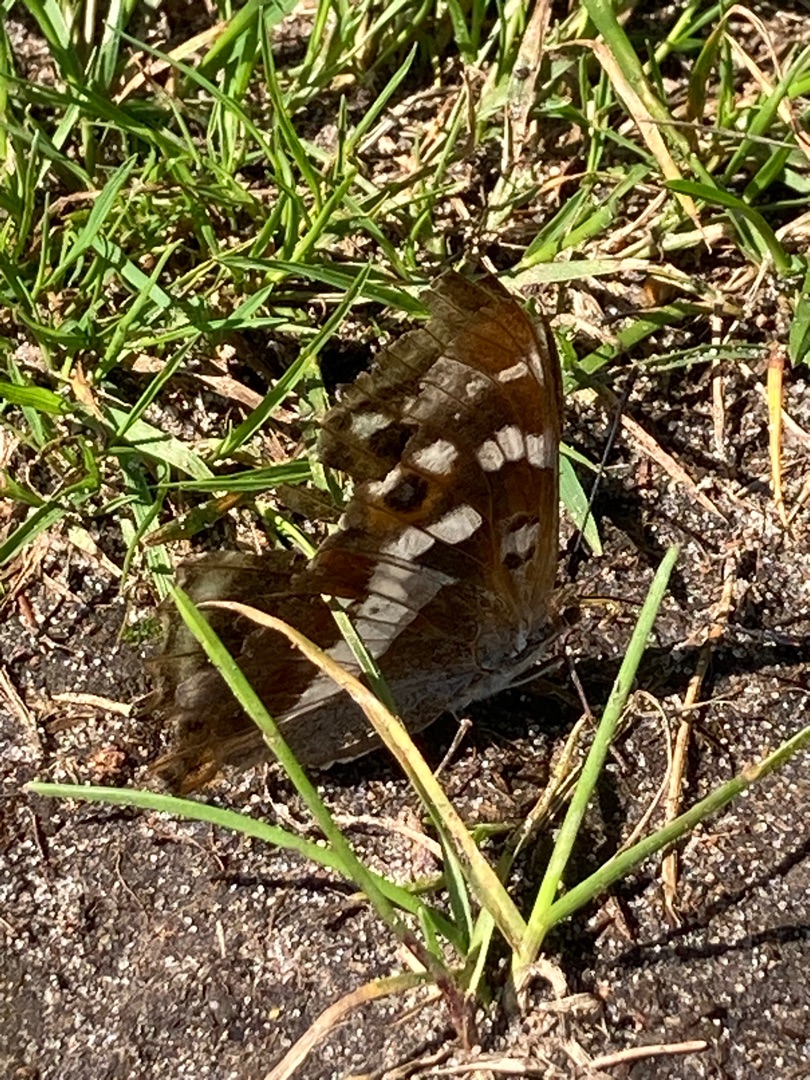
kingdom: Animalia
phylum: Arthropoda
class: Insecta
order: Lepidoptera
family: Nymphalidae
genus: Apatura
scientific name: Apatura iris
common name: Iris
